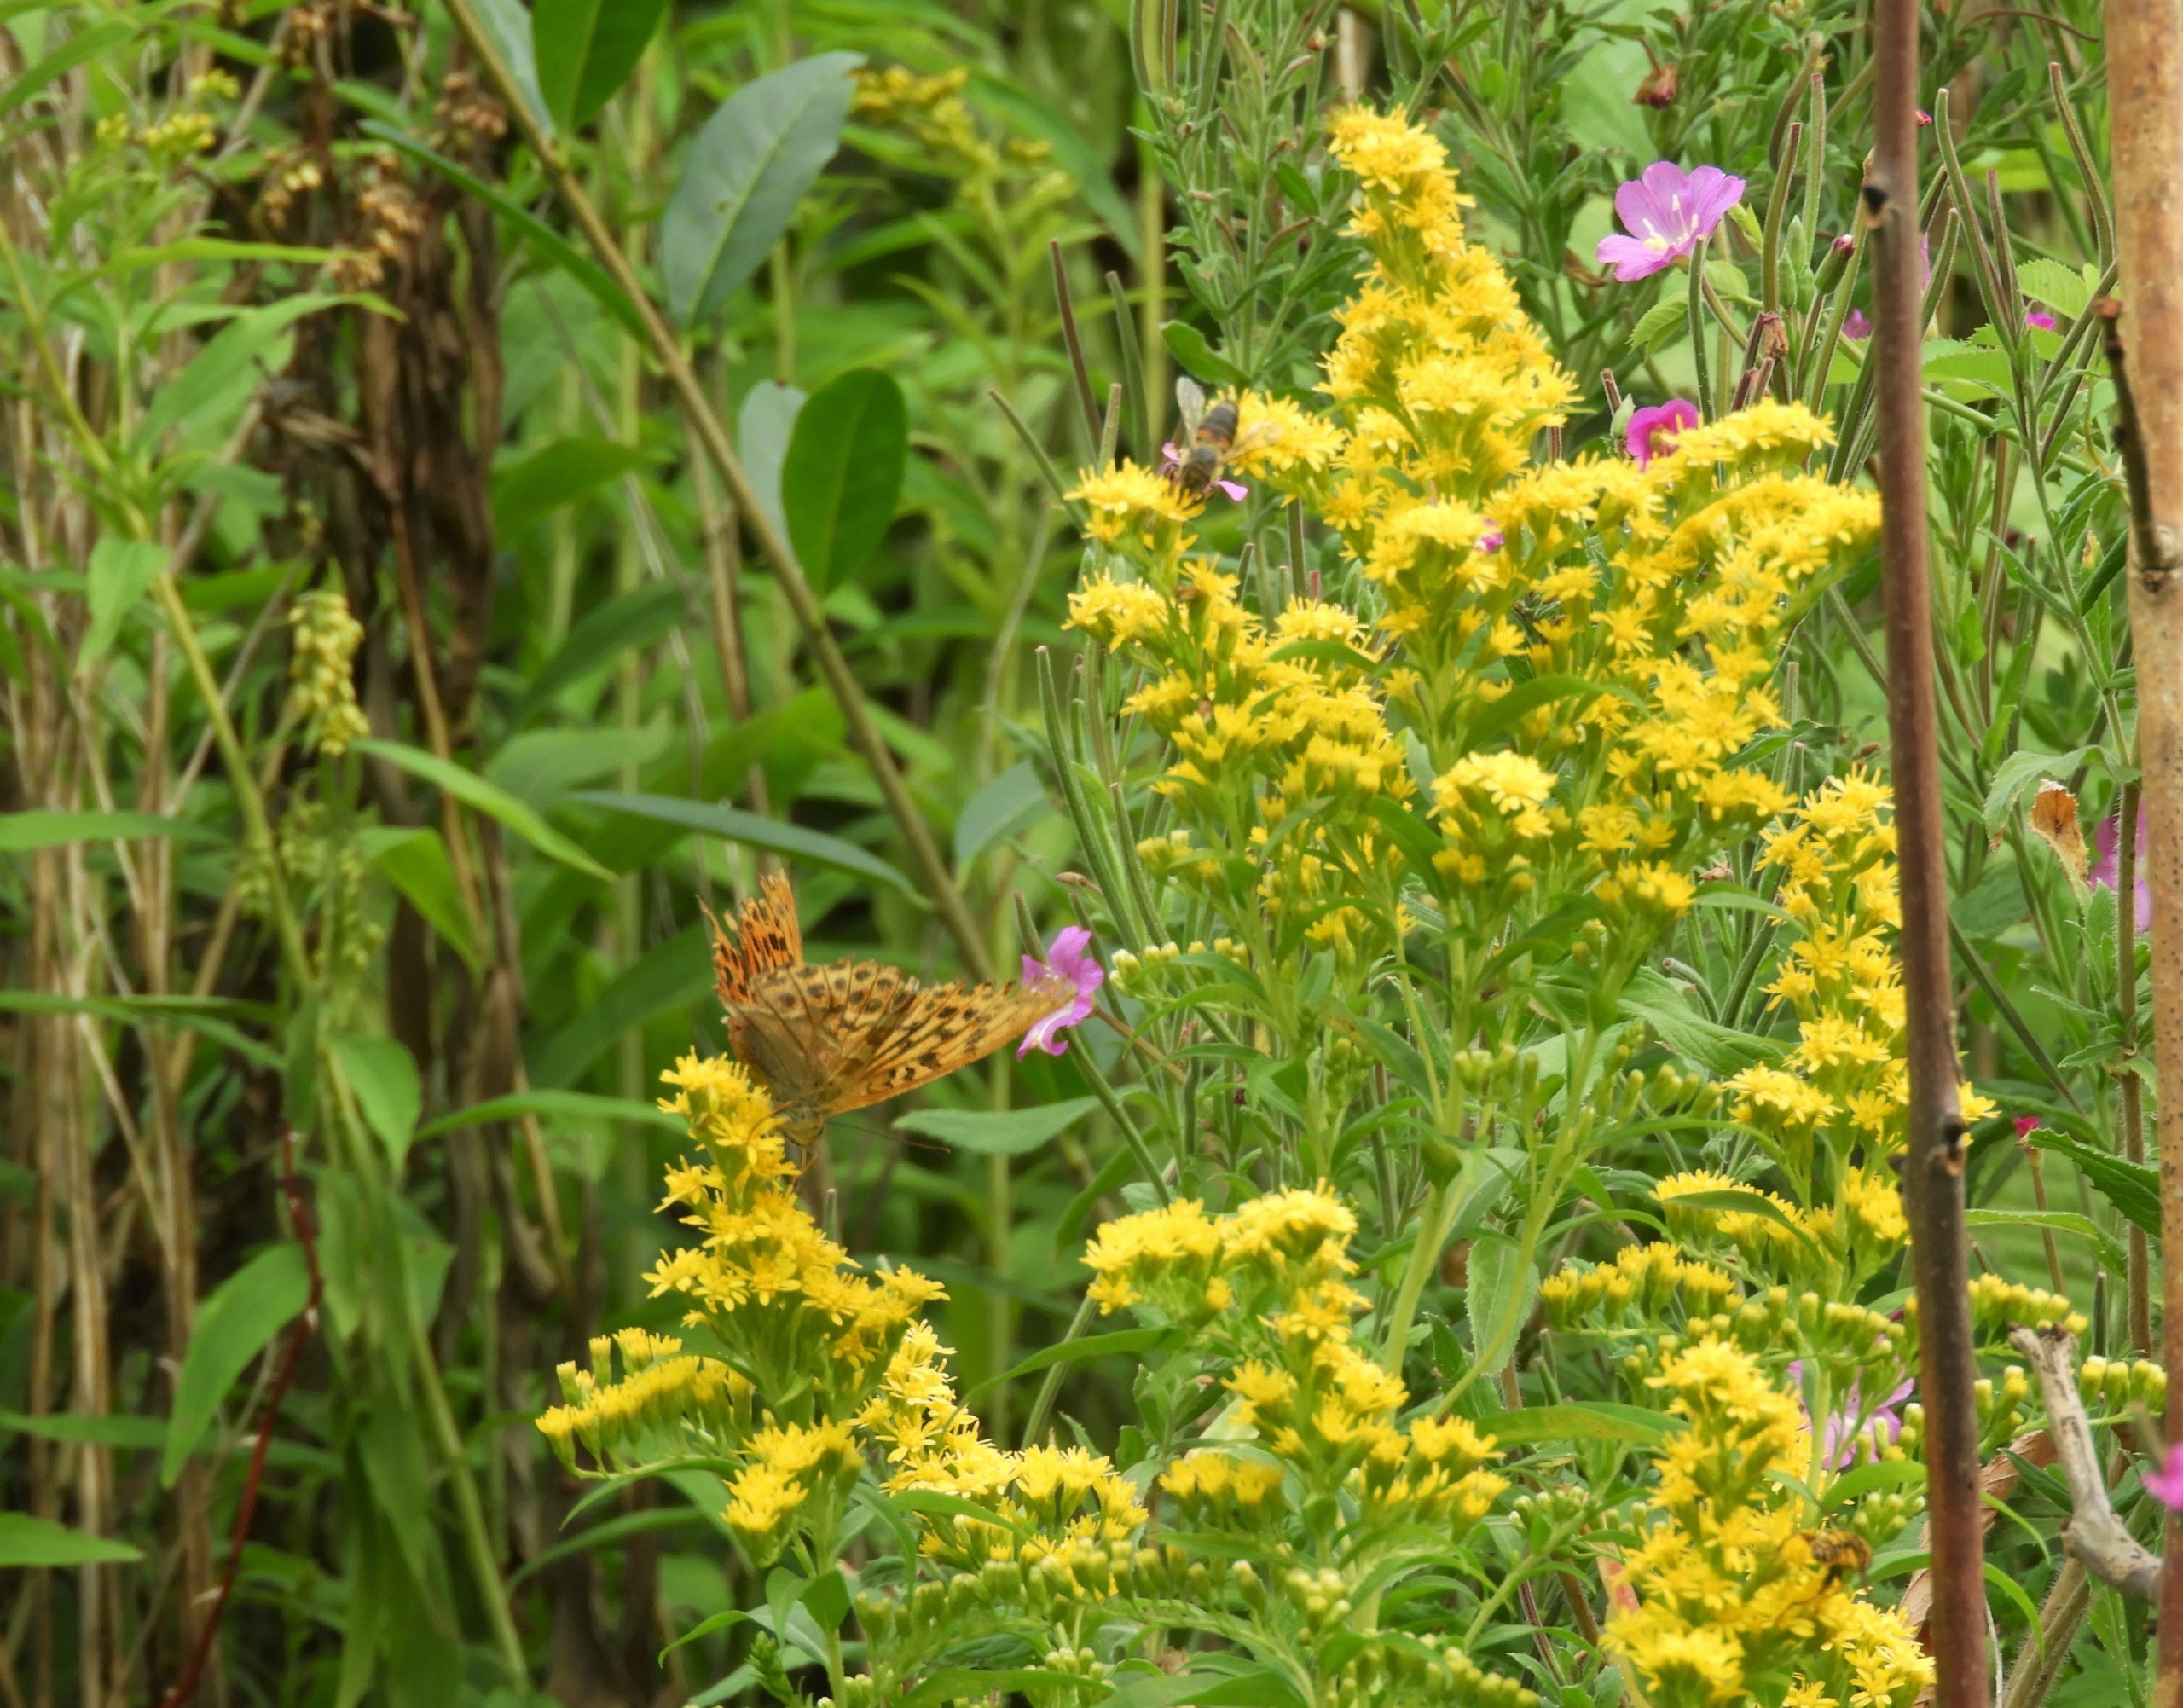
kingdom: Animalia
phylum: Arthropoda
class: Insecta
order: Lepidoptera
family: Nymphalidae
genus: Argynnis
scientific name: Argynnis paphia
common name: Kejserkåbe
